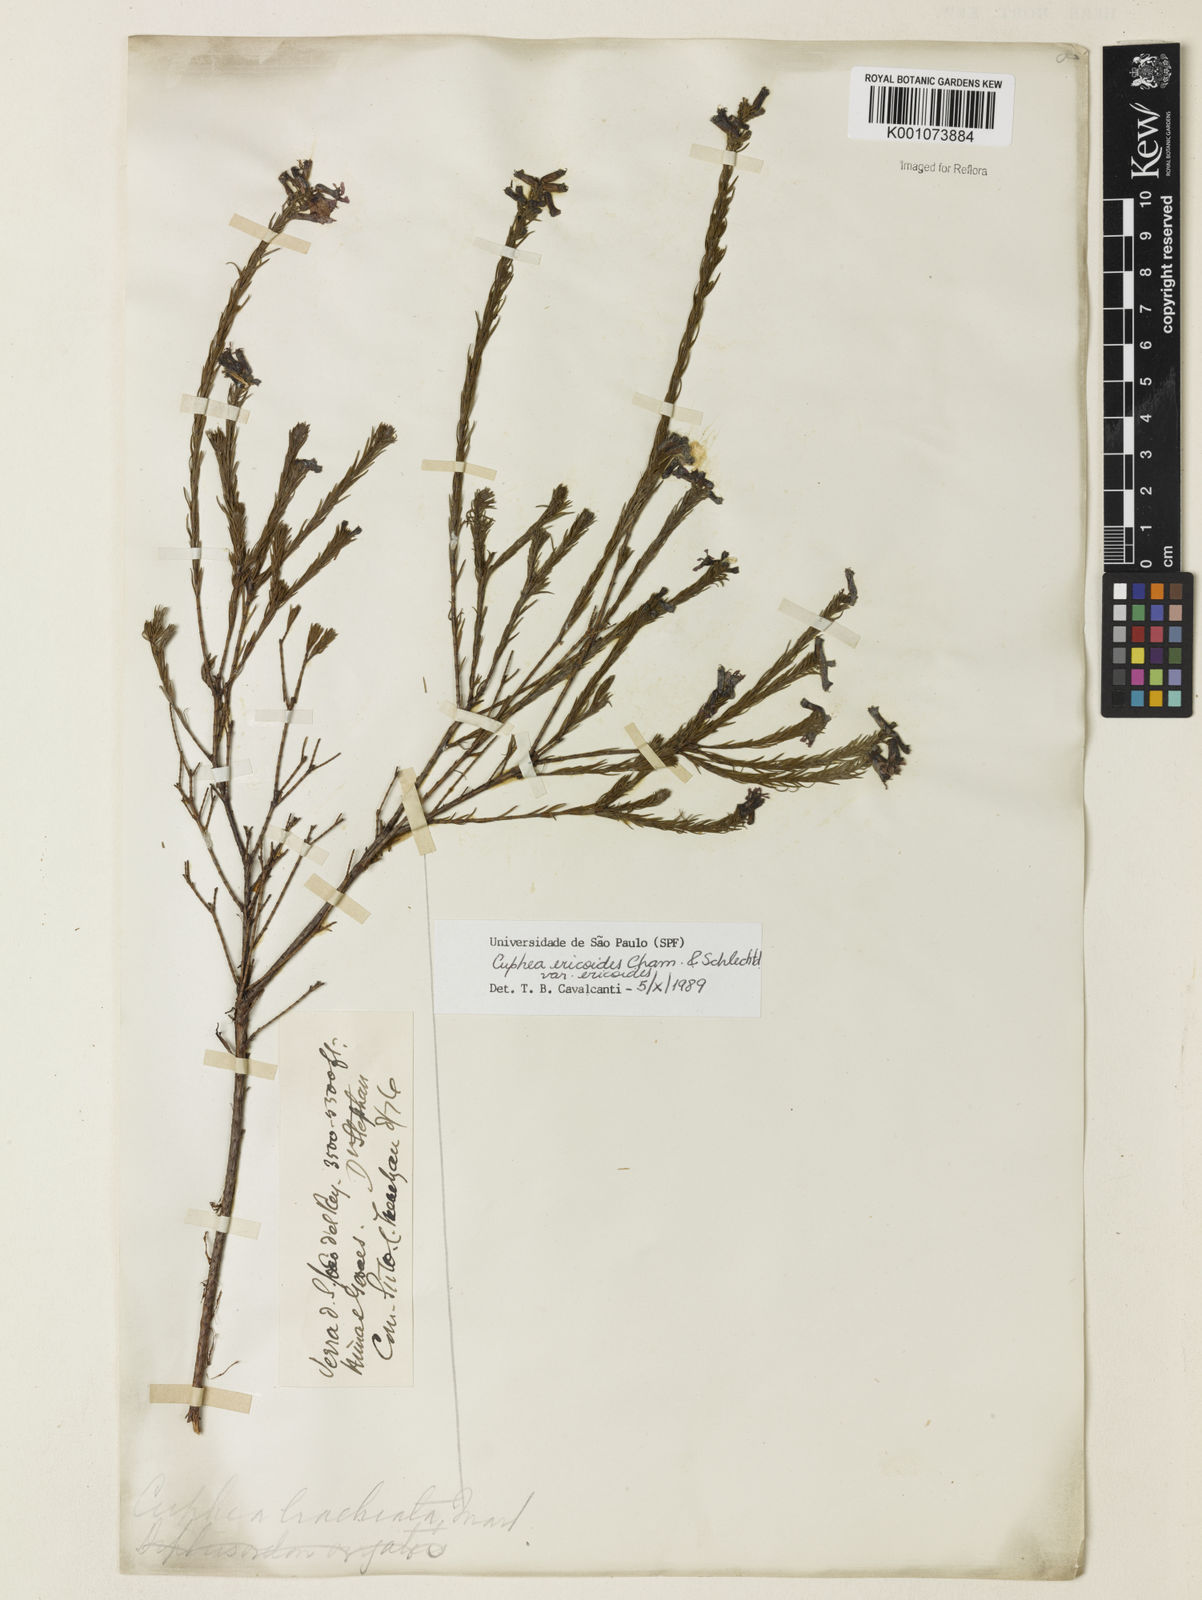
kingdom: Plantae
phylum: Tracheophyta
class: Magnoliopsida
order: Myrtales
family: Lythraceae
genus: Cuphea
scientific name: Cuphea ericoides
